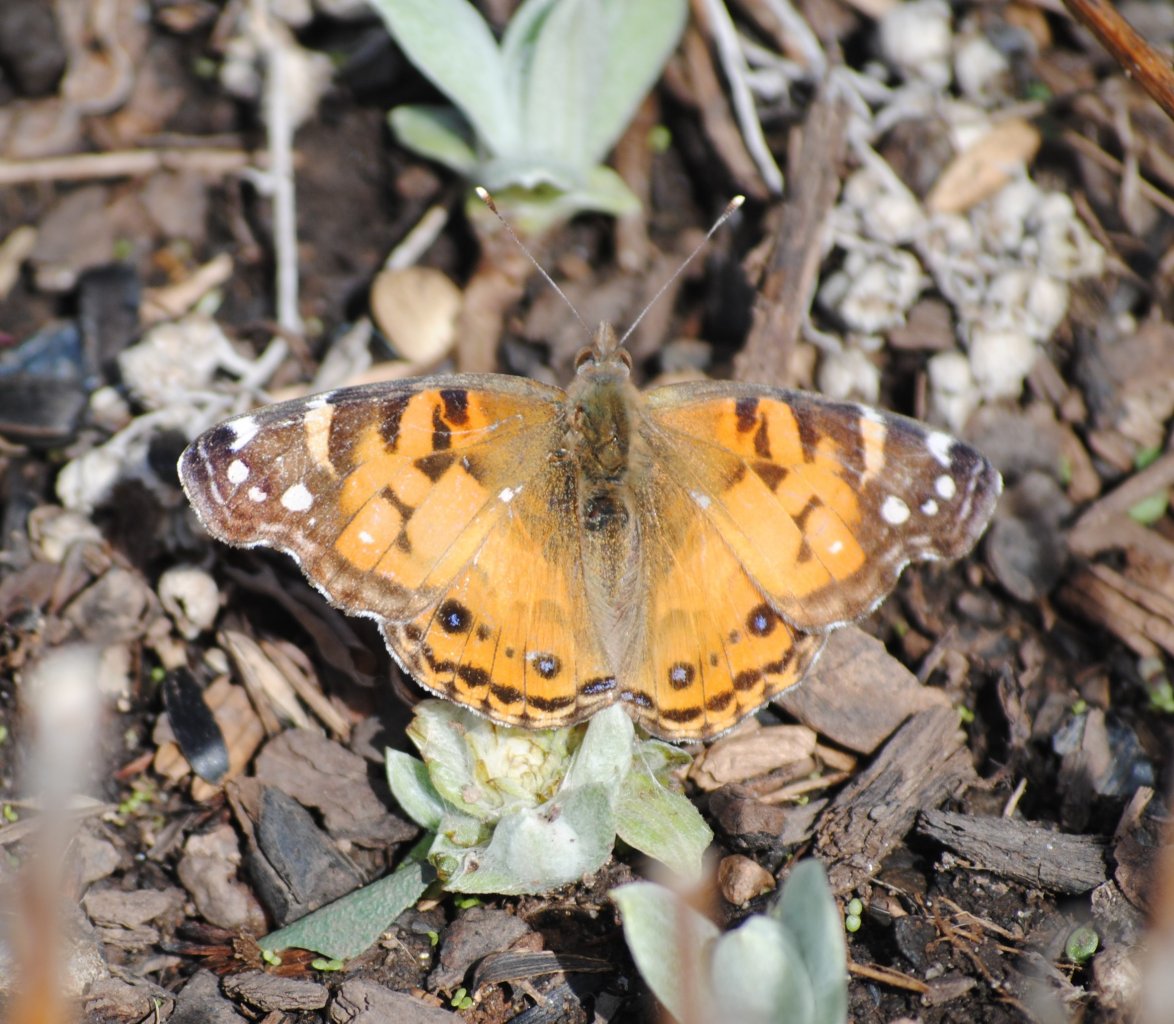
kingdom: Animalia
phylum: Arthropoda
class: Insecta
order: Lepidoptera
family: Nymphalidae
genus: Vanessa
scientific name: Vanessa virginiensis
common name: American Lady
